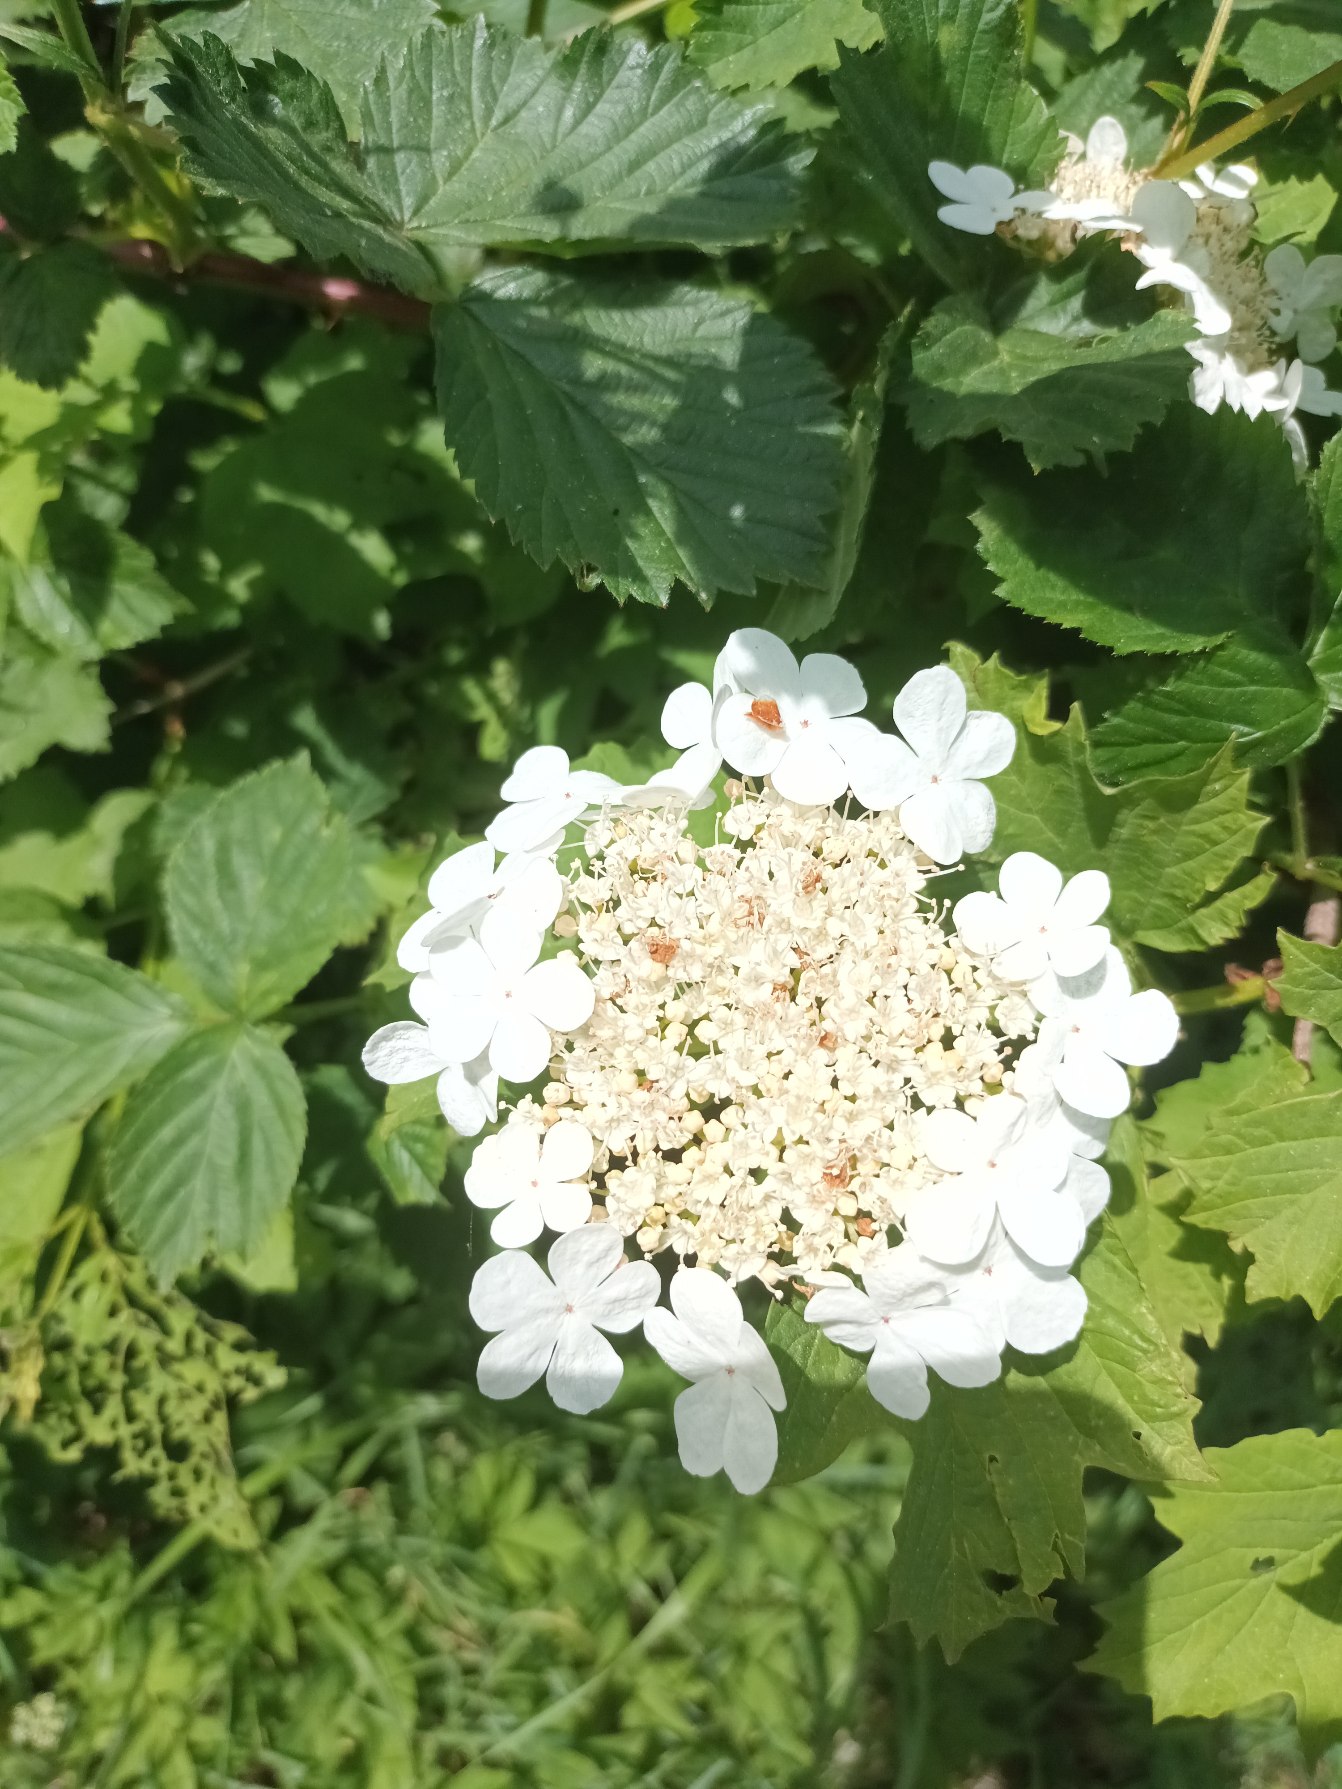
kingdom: Plantae
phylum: Tracheophyta
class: Magnoliopsida
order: Dipsacales
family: Viburnaceae
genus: Viburnum
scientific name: Viburnum opulus
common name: Kvalkved
